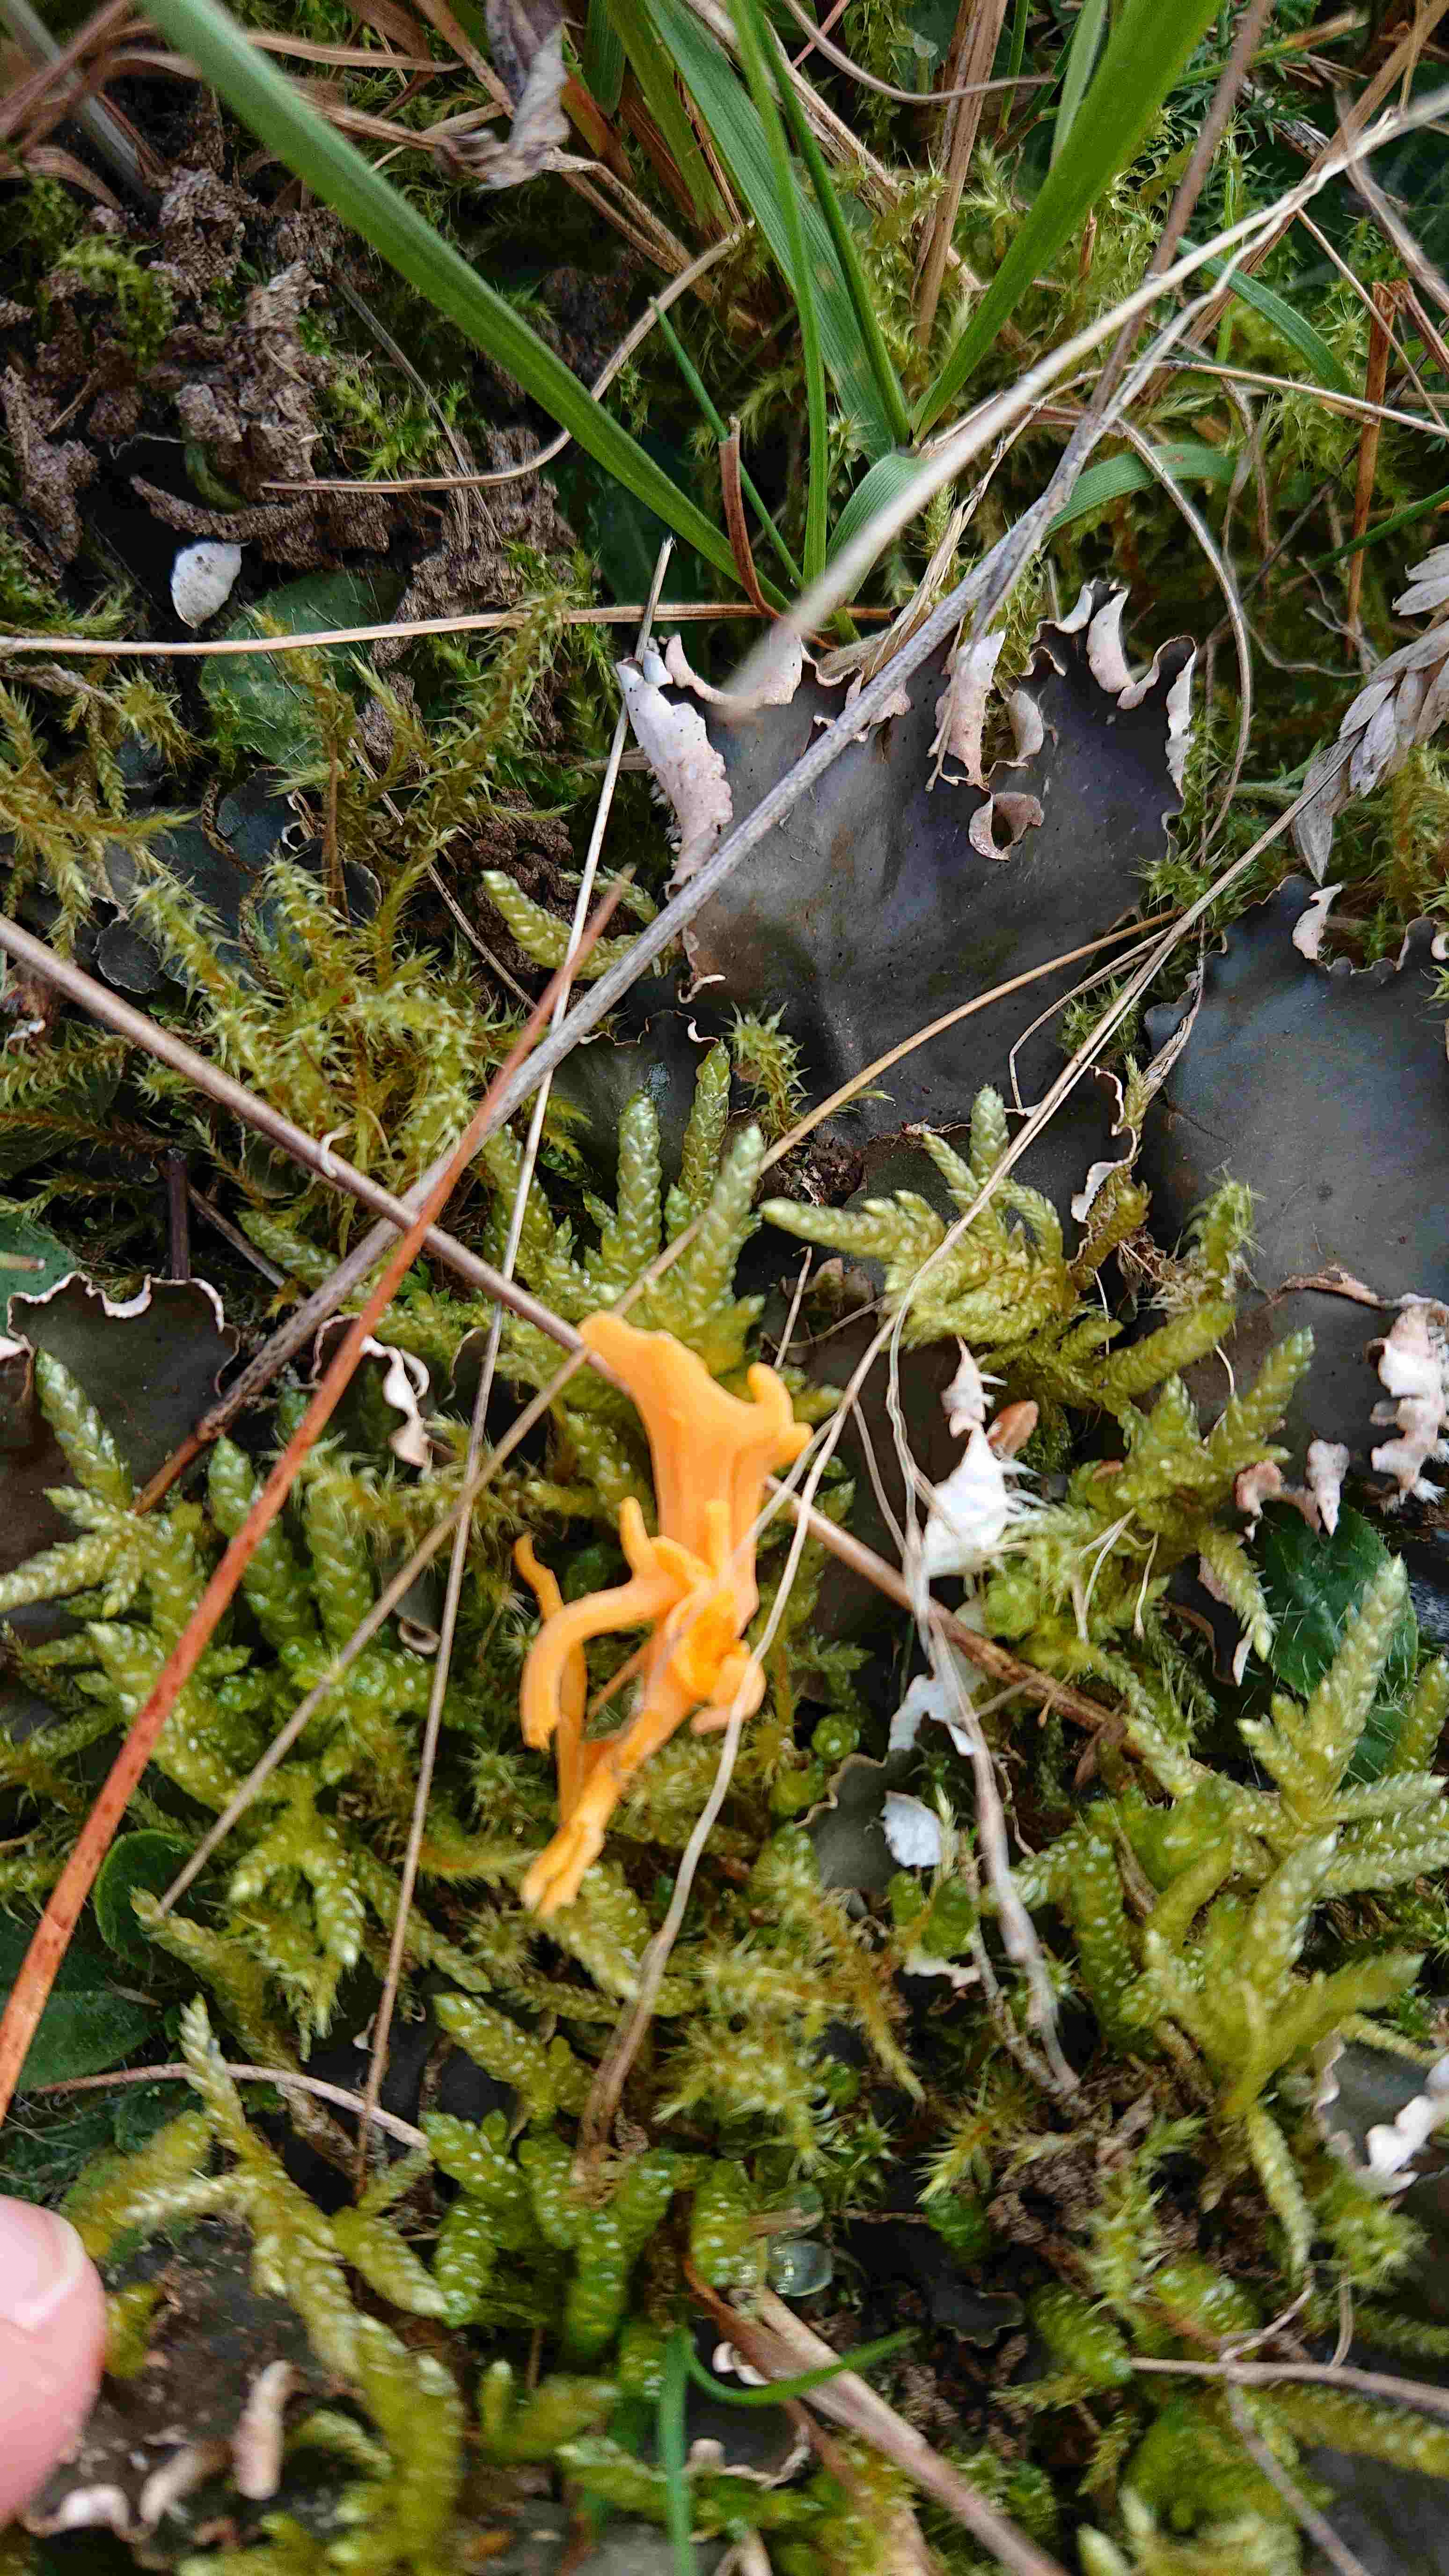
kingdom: Fungi
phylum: Basidiomycota
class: Agaricomycetes
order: Agaricales
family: Clavariaceae
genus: Clavulinopsis
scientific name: Clavulinopsis
